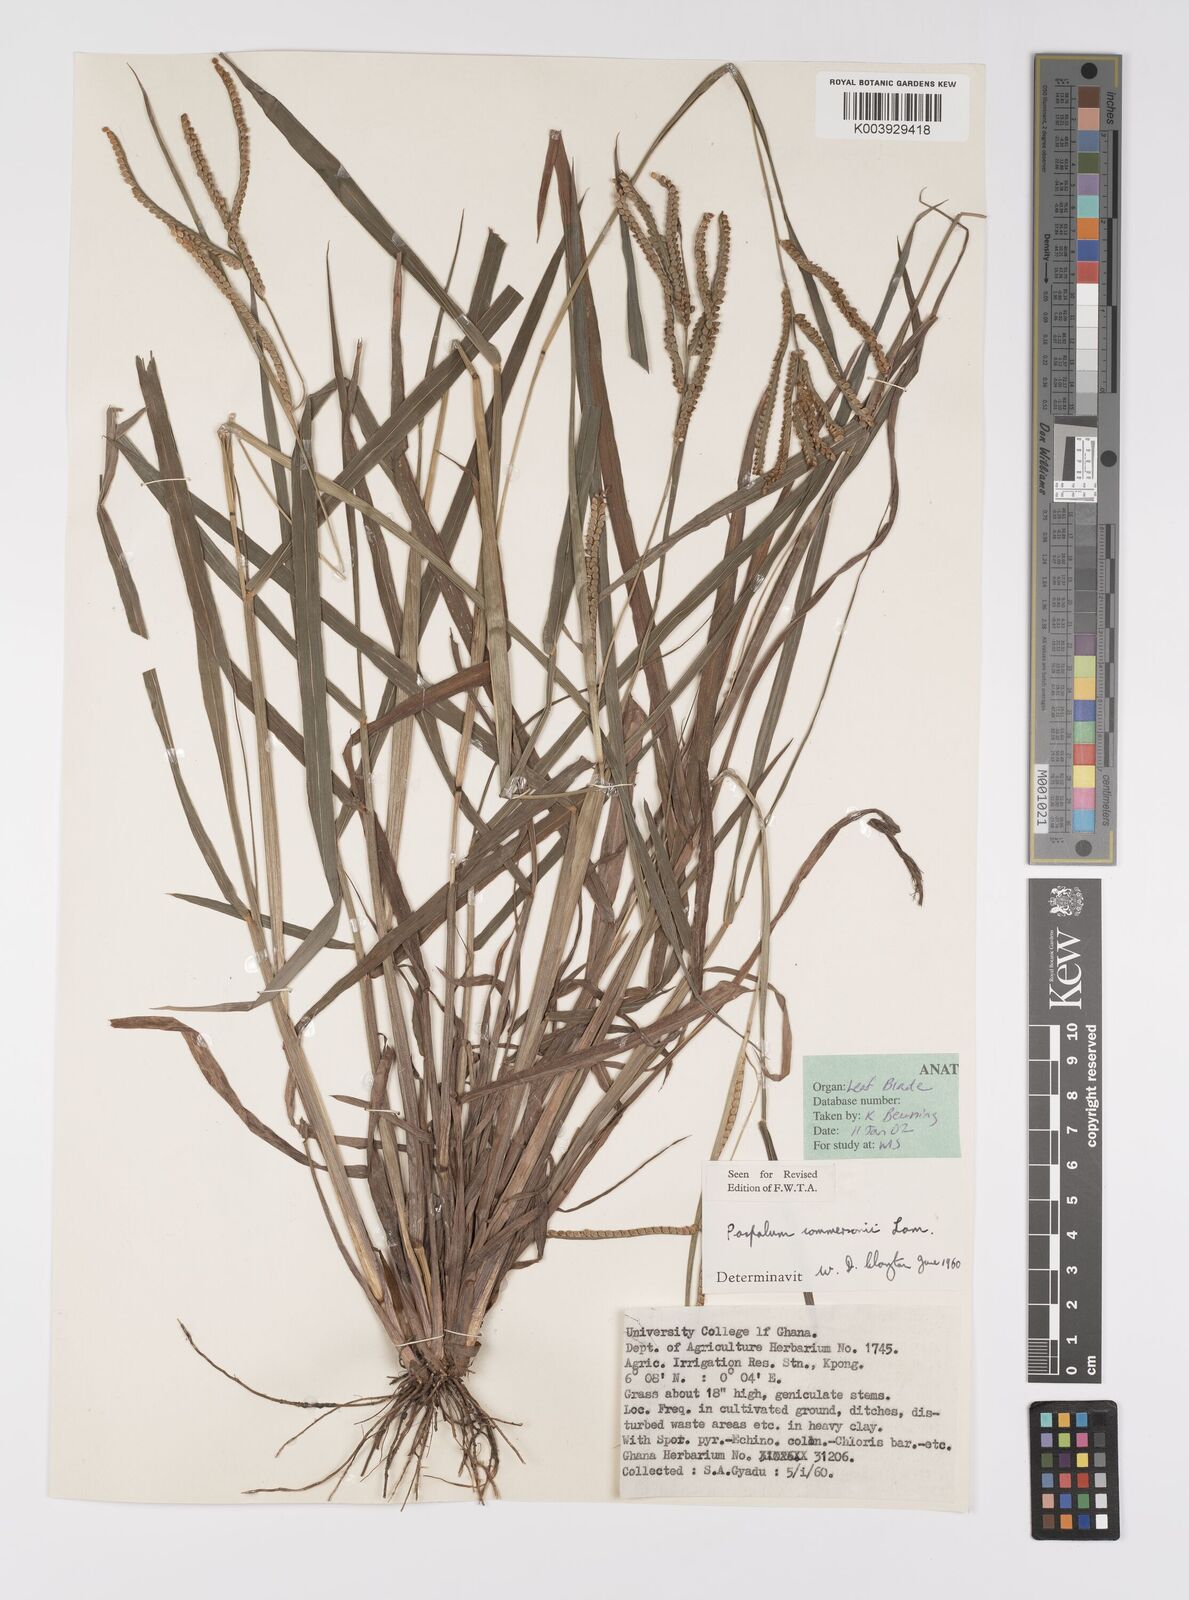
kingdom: Plantae
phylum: Tracheophyta
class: Liliopsida
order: Poales
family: Poaceae
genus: Paspalum
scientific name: Paspalum scrobiculatum
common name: Kodo millet
